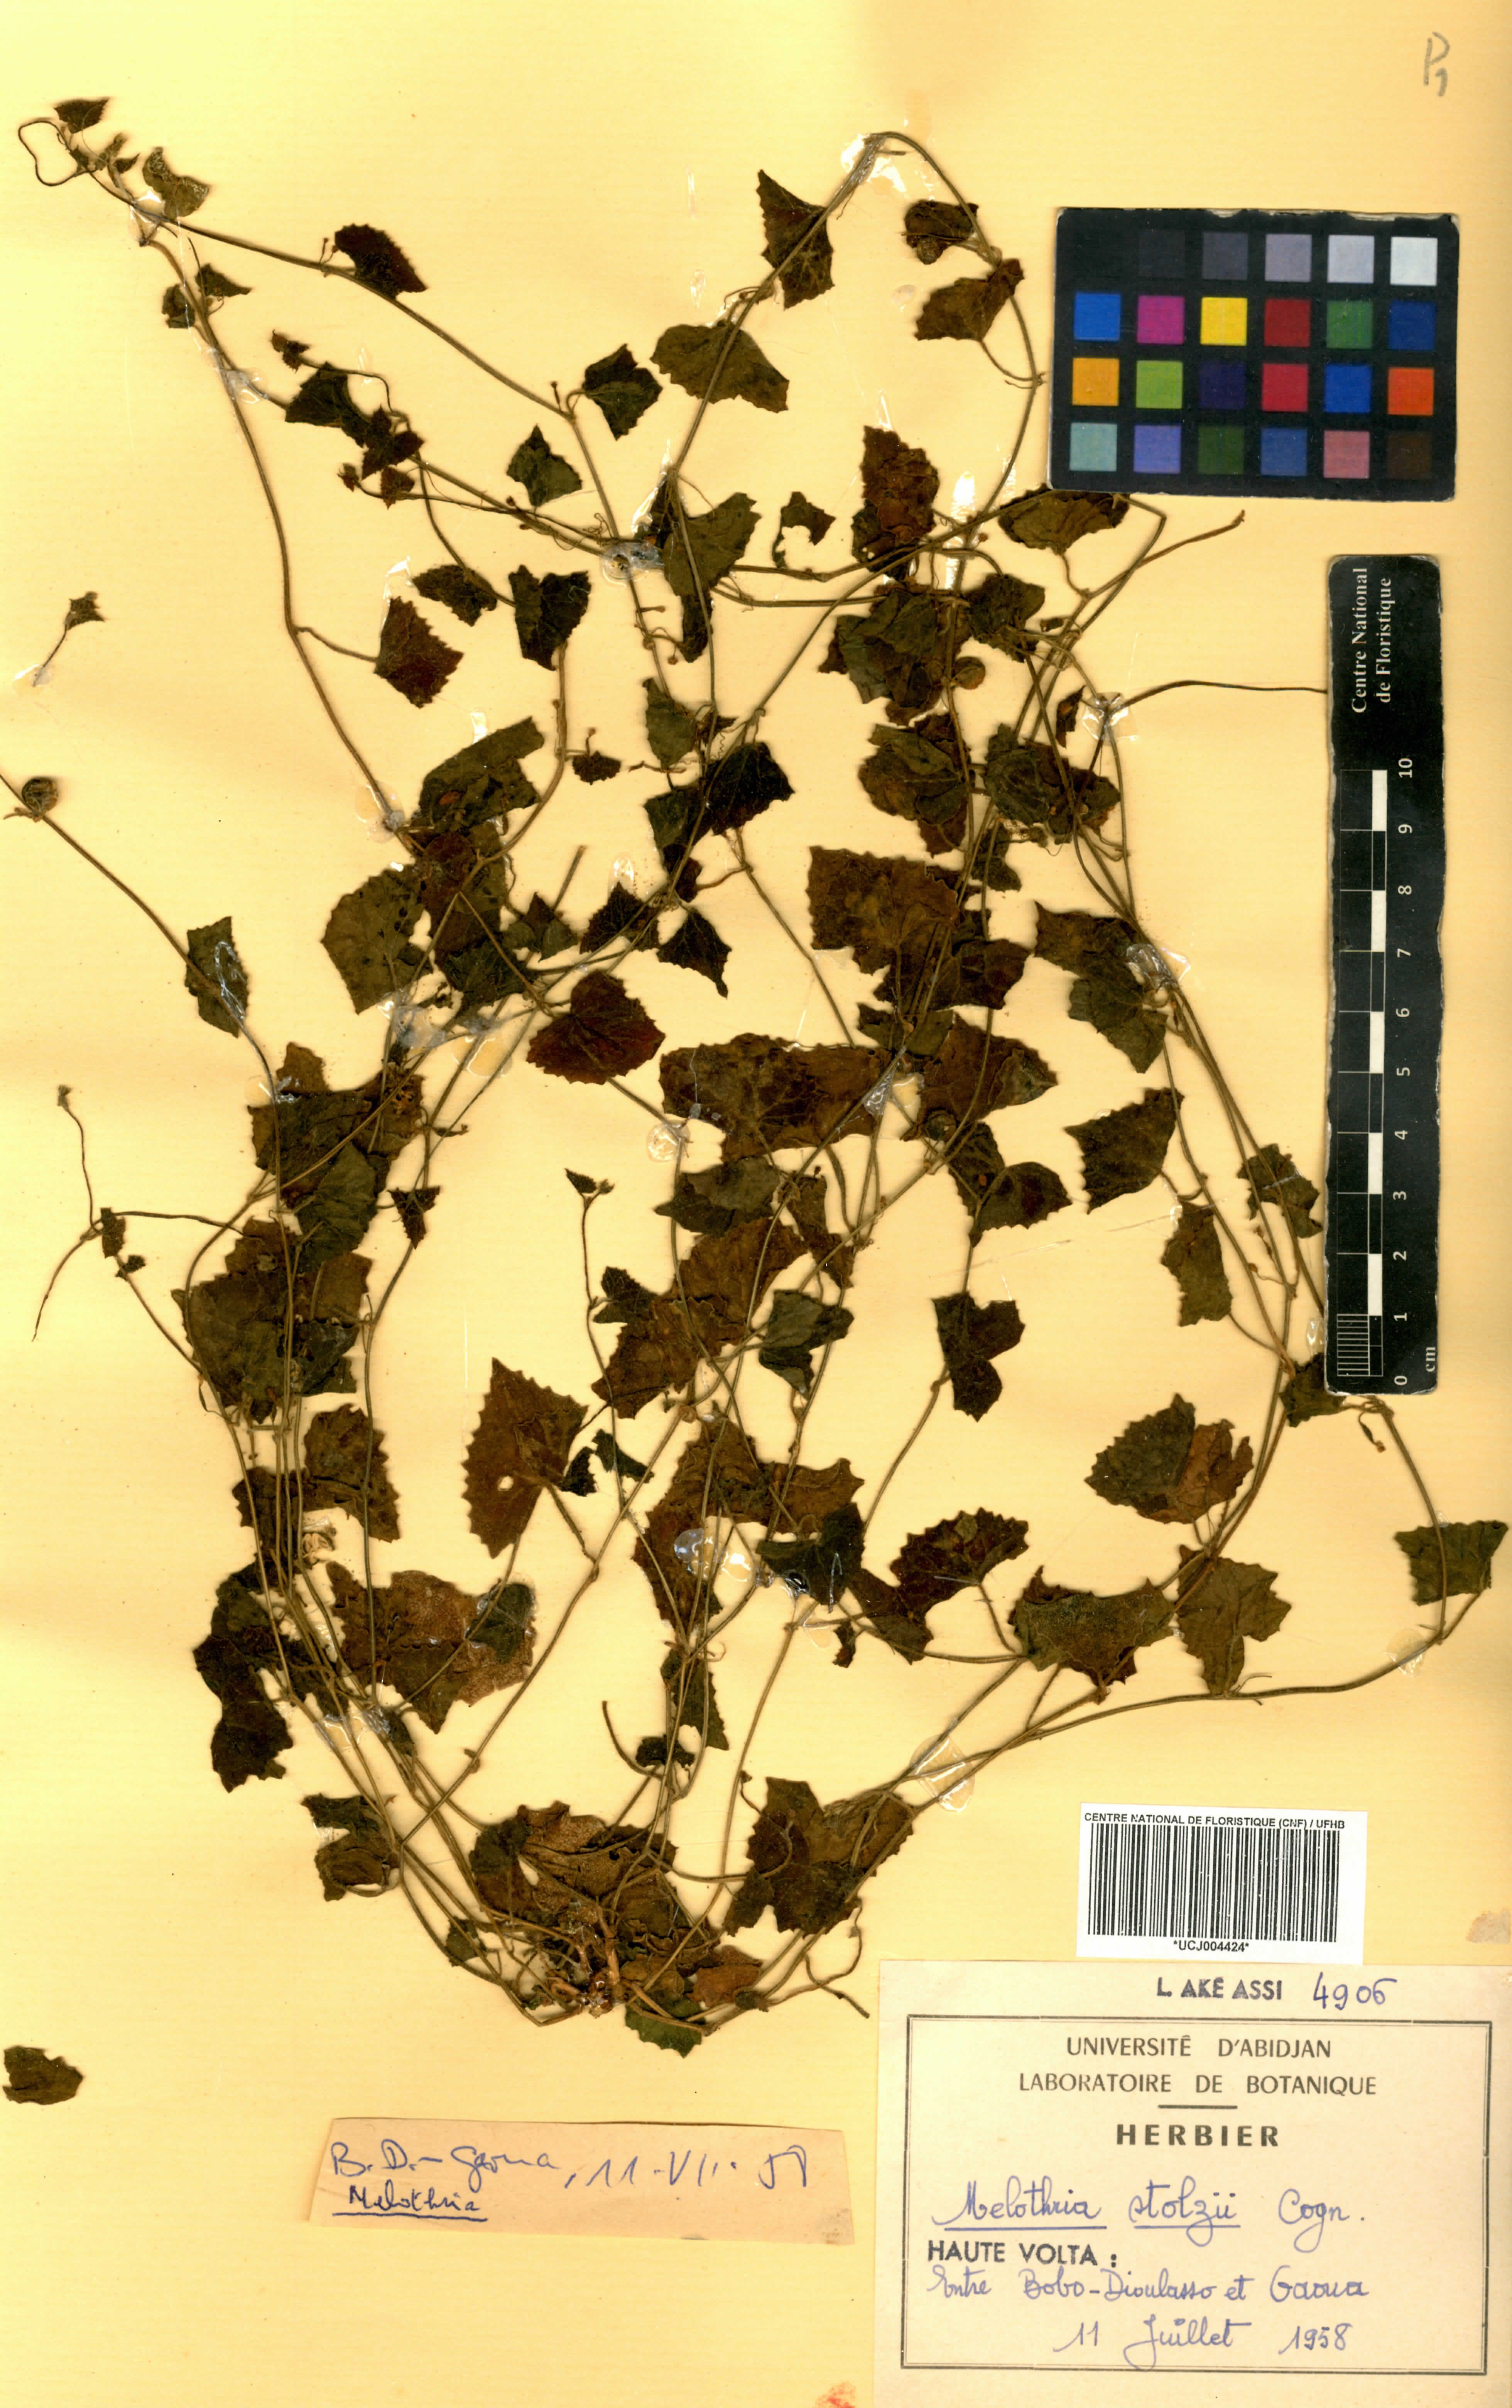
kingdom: Plantae
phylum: Tracheophyta
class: Magnoliopsida
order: Cucurbitales
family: Cucurbitaceae
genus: Zehneria
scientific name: Zehneria minutiflora
